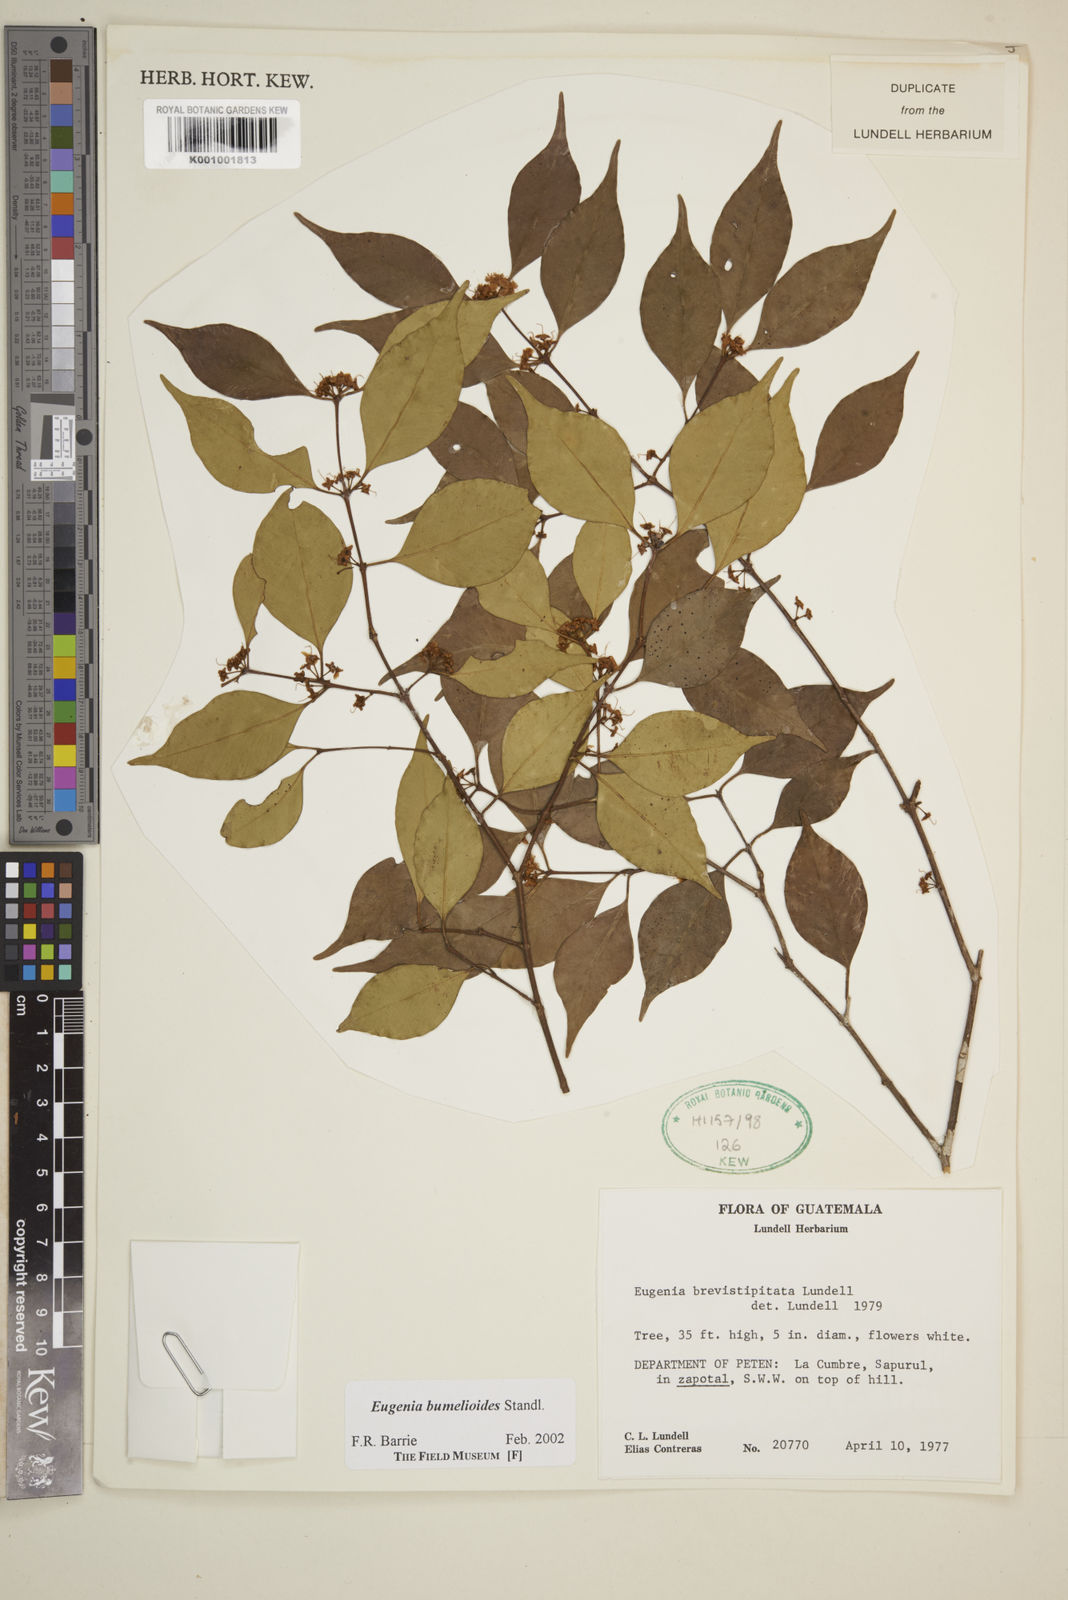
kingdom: Plantae
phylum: Tracheophyta
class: Magnoliopsida
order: Myrtales
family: Myrtaceae
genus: Eugenia
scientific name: Eugenia bumelioides
